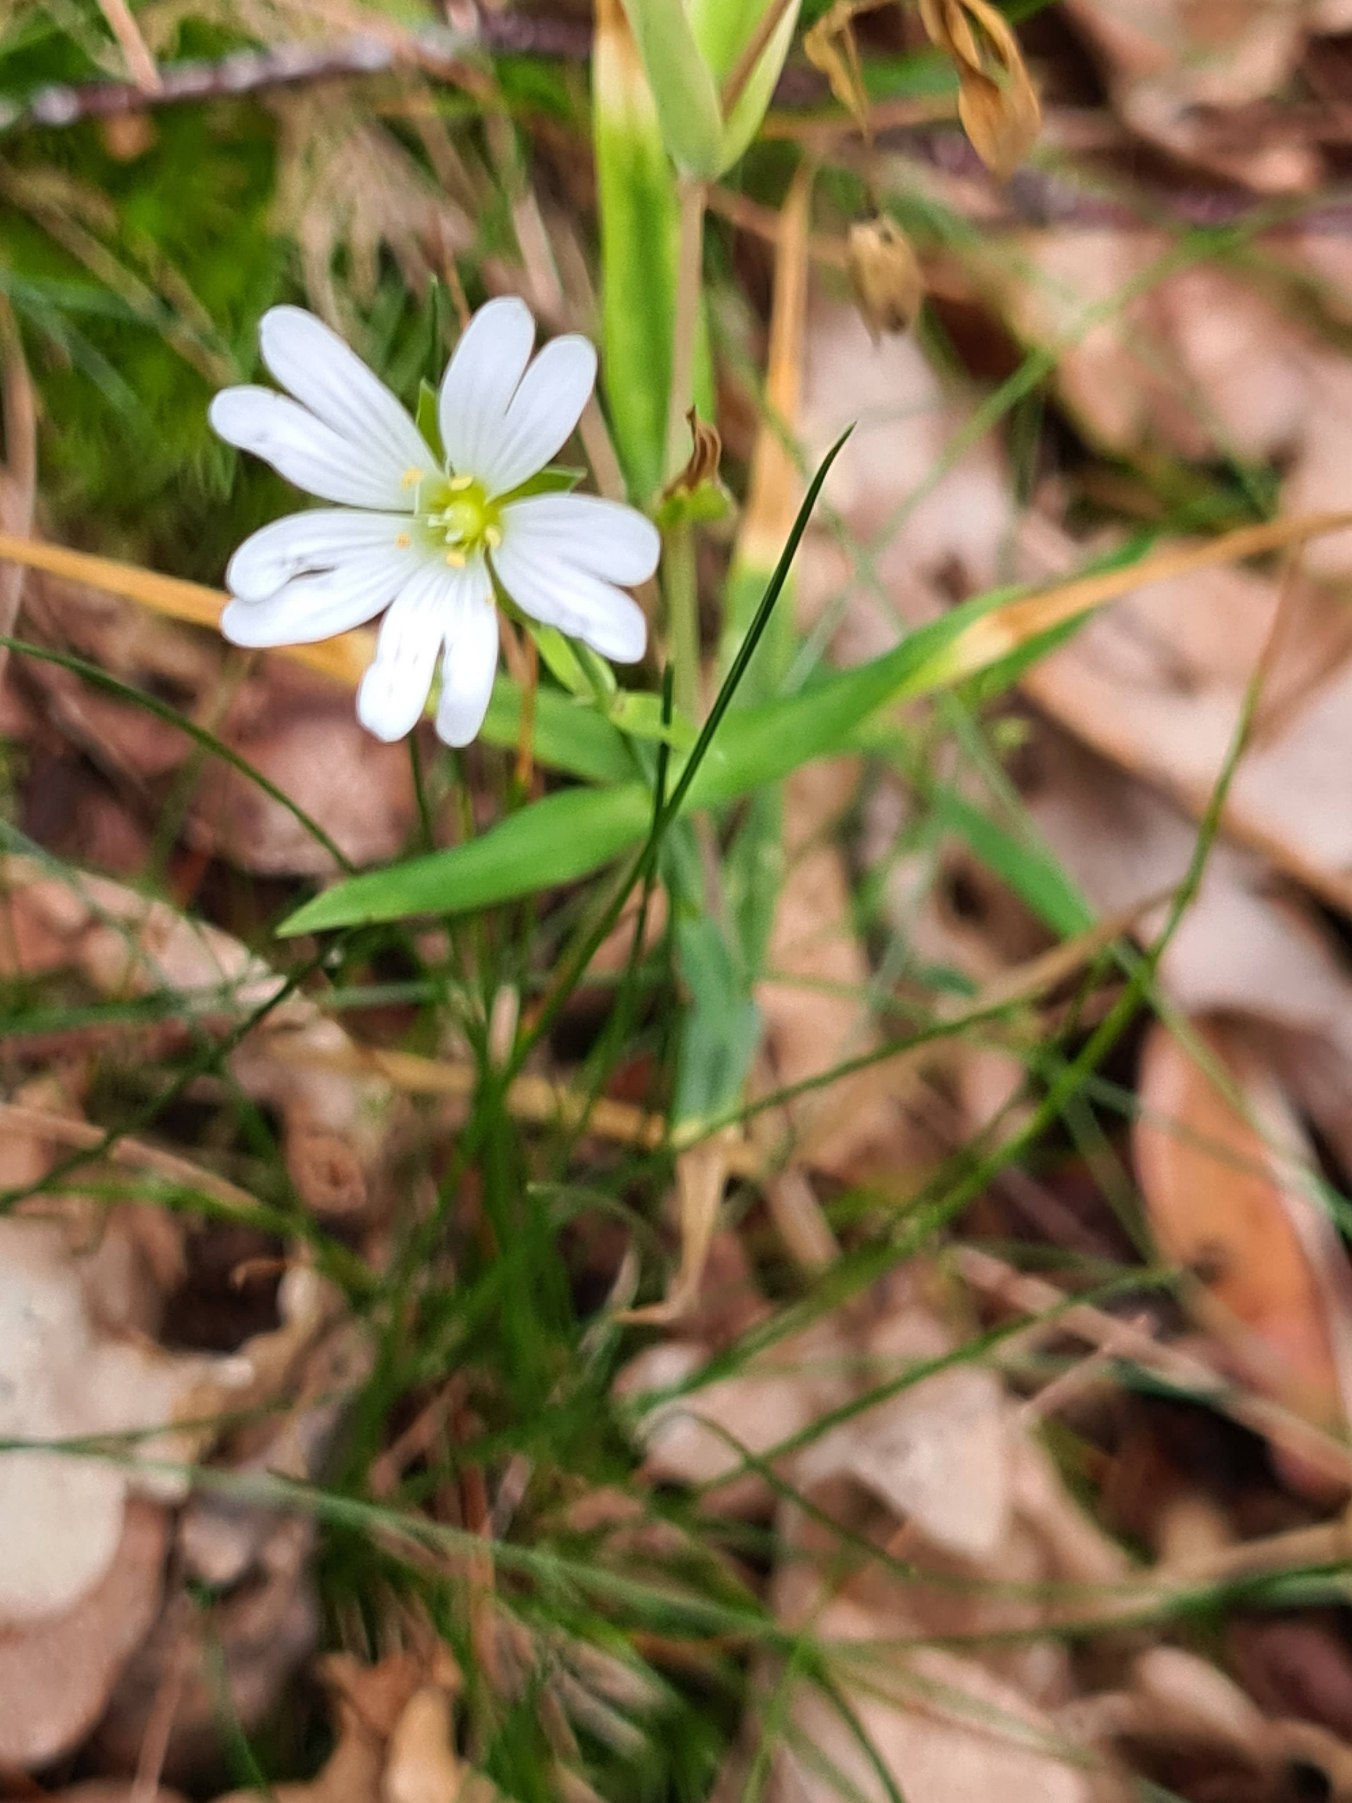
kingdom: Plantae
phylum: Tracheophyta
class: Magnoliopsida
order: Caryophyllales
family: Caryophyllaceae
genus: Rabelera
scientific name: Rabelera holostea
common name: Stor fladstjerne
